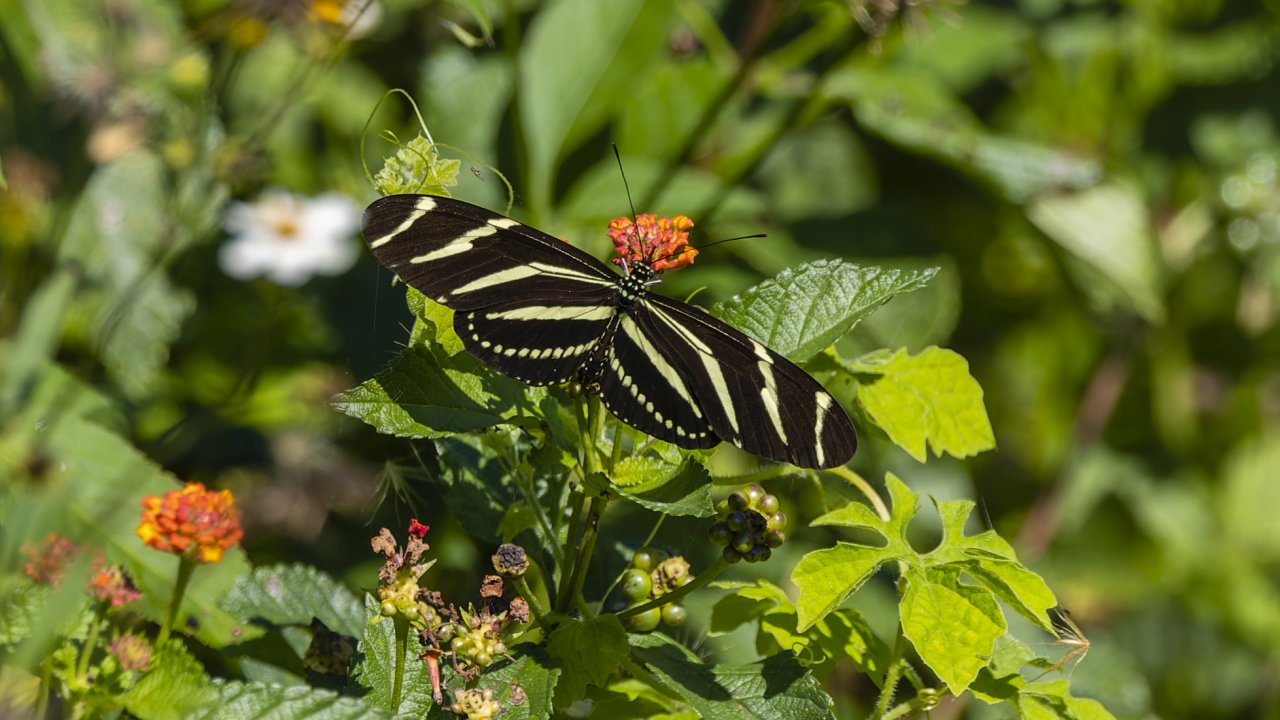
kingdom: Animalia
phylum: Arthropoda
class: Insecta
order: Lepidoptera
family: Nymphalidae
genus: Heliconius
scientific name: Heliconius charithonia
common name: Zebra Longwing
